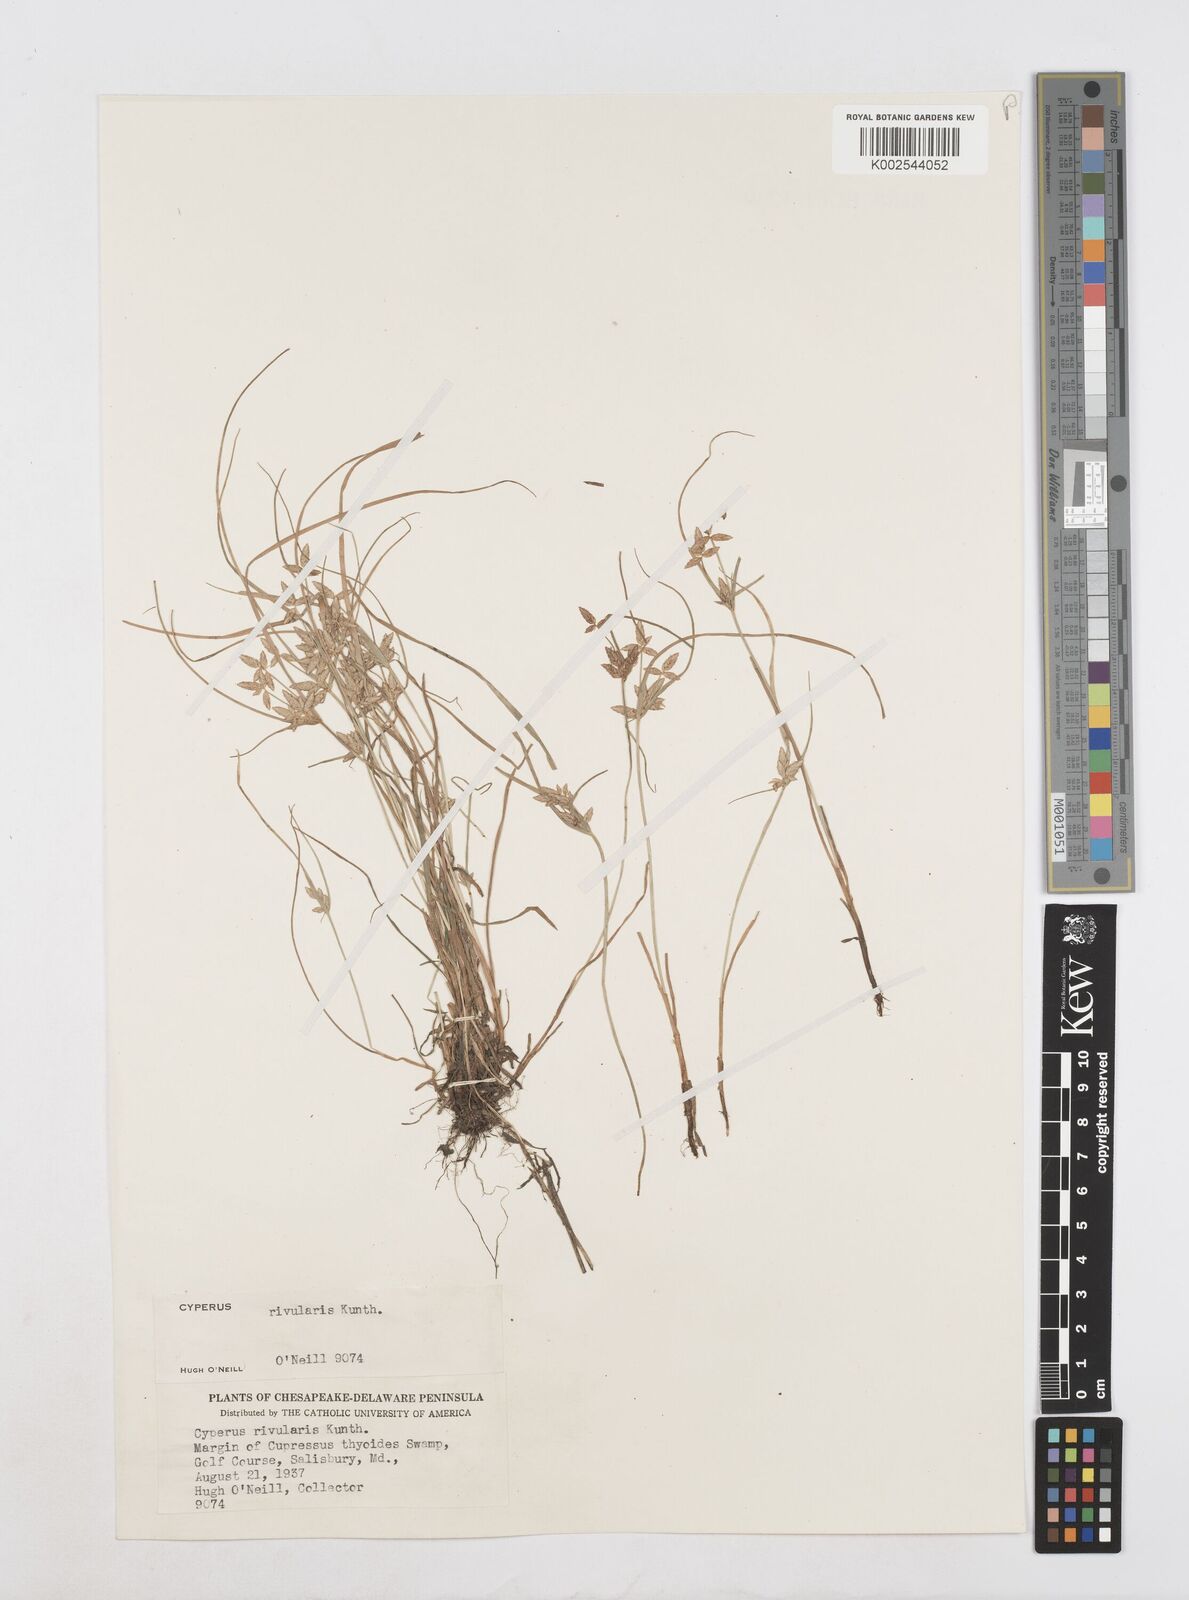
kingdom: Plantae
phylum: Tracheophyta
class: Liliopsida
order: Poales
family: Cyperaceae
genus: Cyperus
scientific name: Cyperus bipartitus
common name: Brook flatsedge
